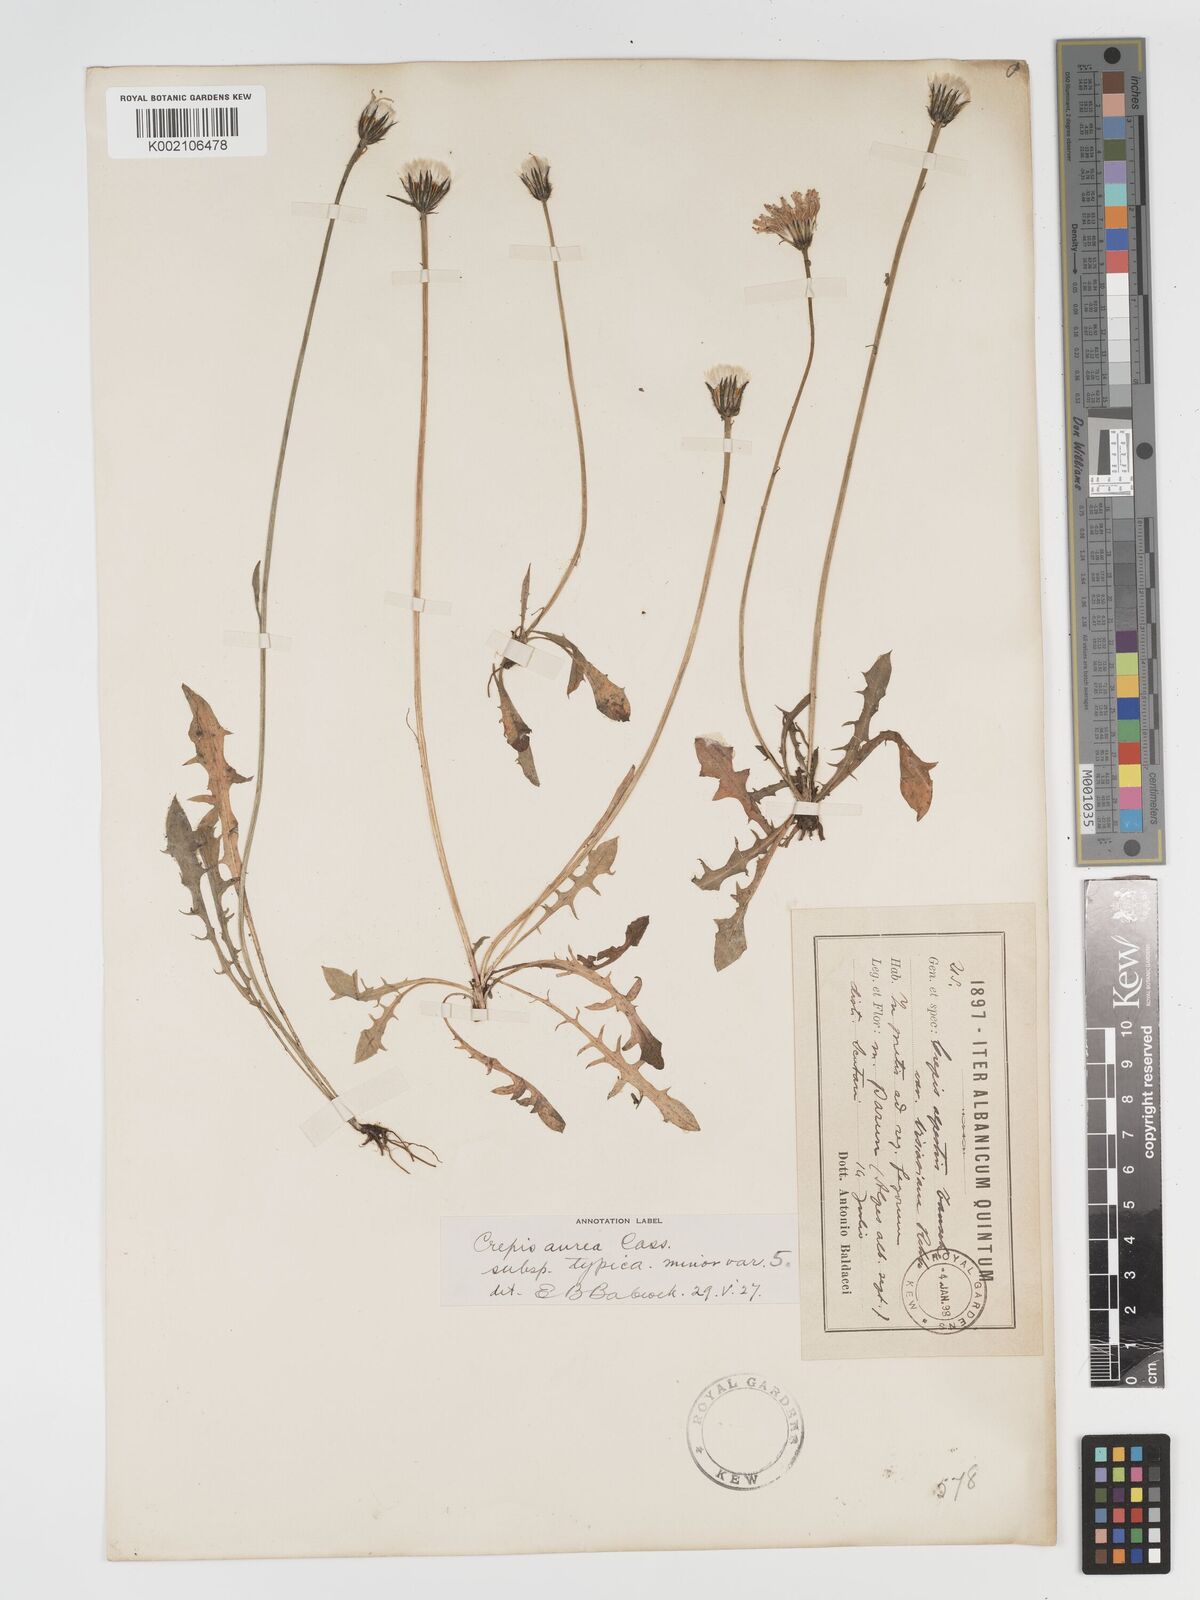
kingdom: Plantae
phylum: Tracheophyta
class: Magnoliopsida
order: Asterales
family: Asteraceae
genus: Crepis
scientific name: Crepis aurea
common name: Golden hawk's-beard
